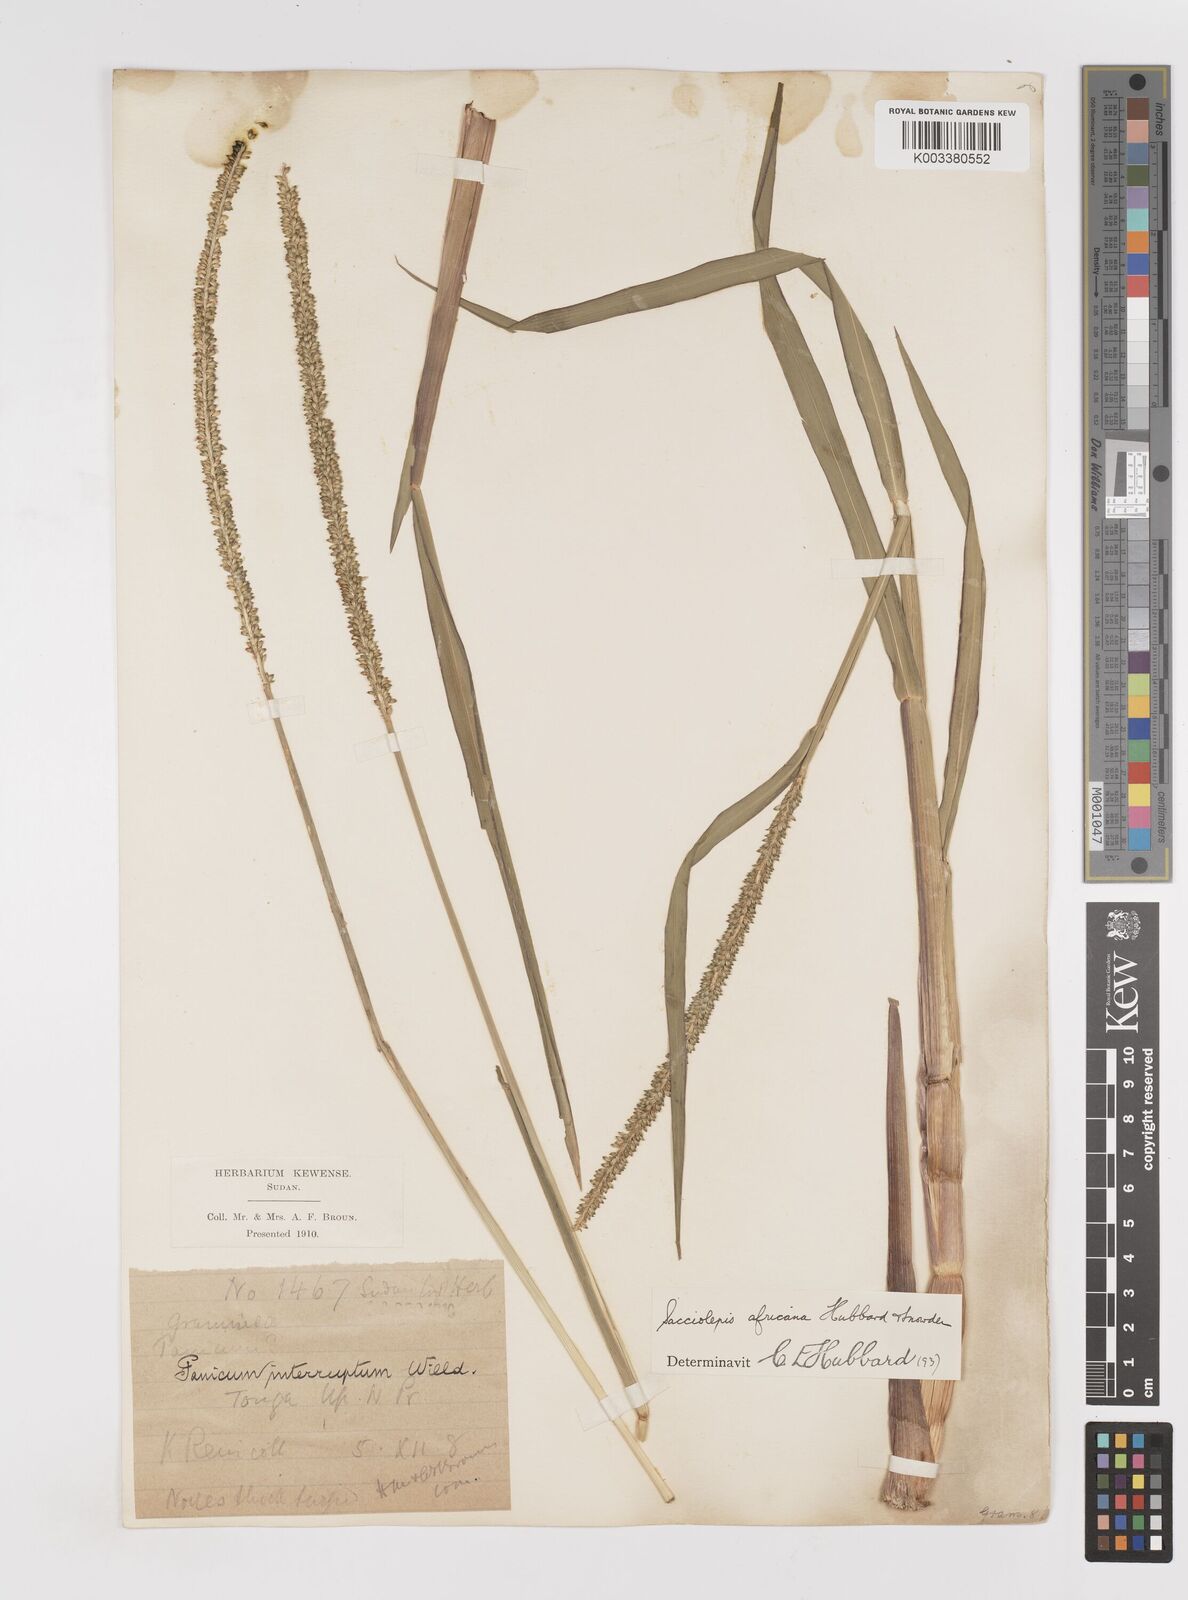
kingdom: Plantae
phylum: Tracheophyta
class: Liliopsida
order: Poales
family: Poaceae
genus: Sacciolepis
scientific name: Sacciolepis africana
